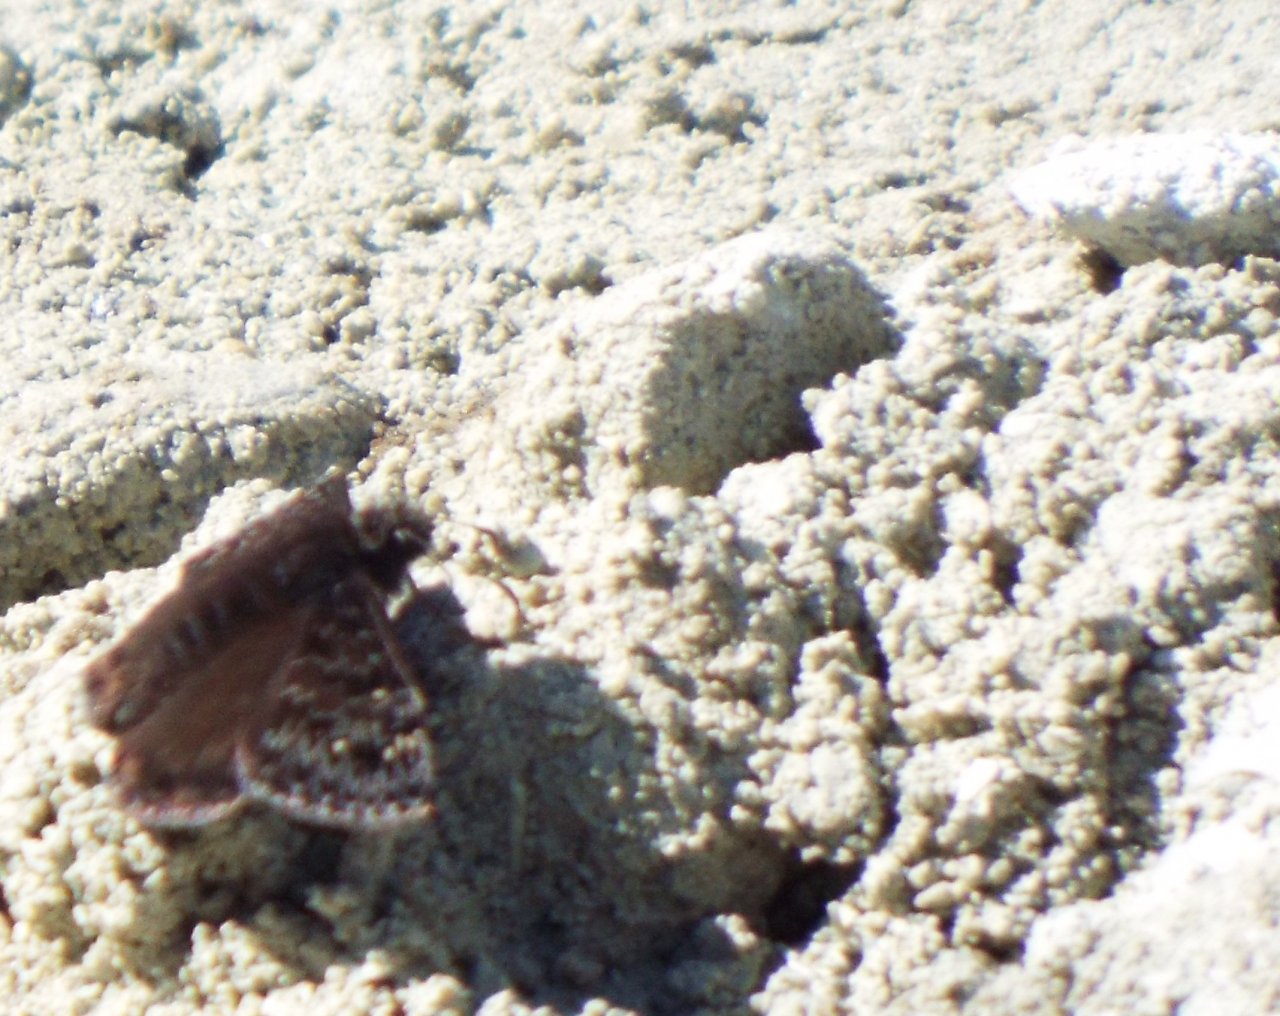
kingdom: Animalia
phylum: Arthropoda
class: Insecta
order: Lepidoptera
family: Hesperiidae
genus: Gesta
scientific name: Gesta
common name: Juvenal's Duskywing
